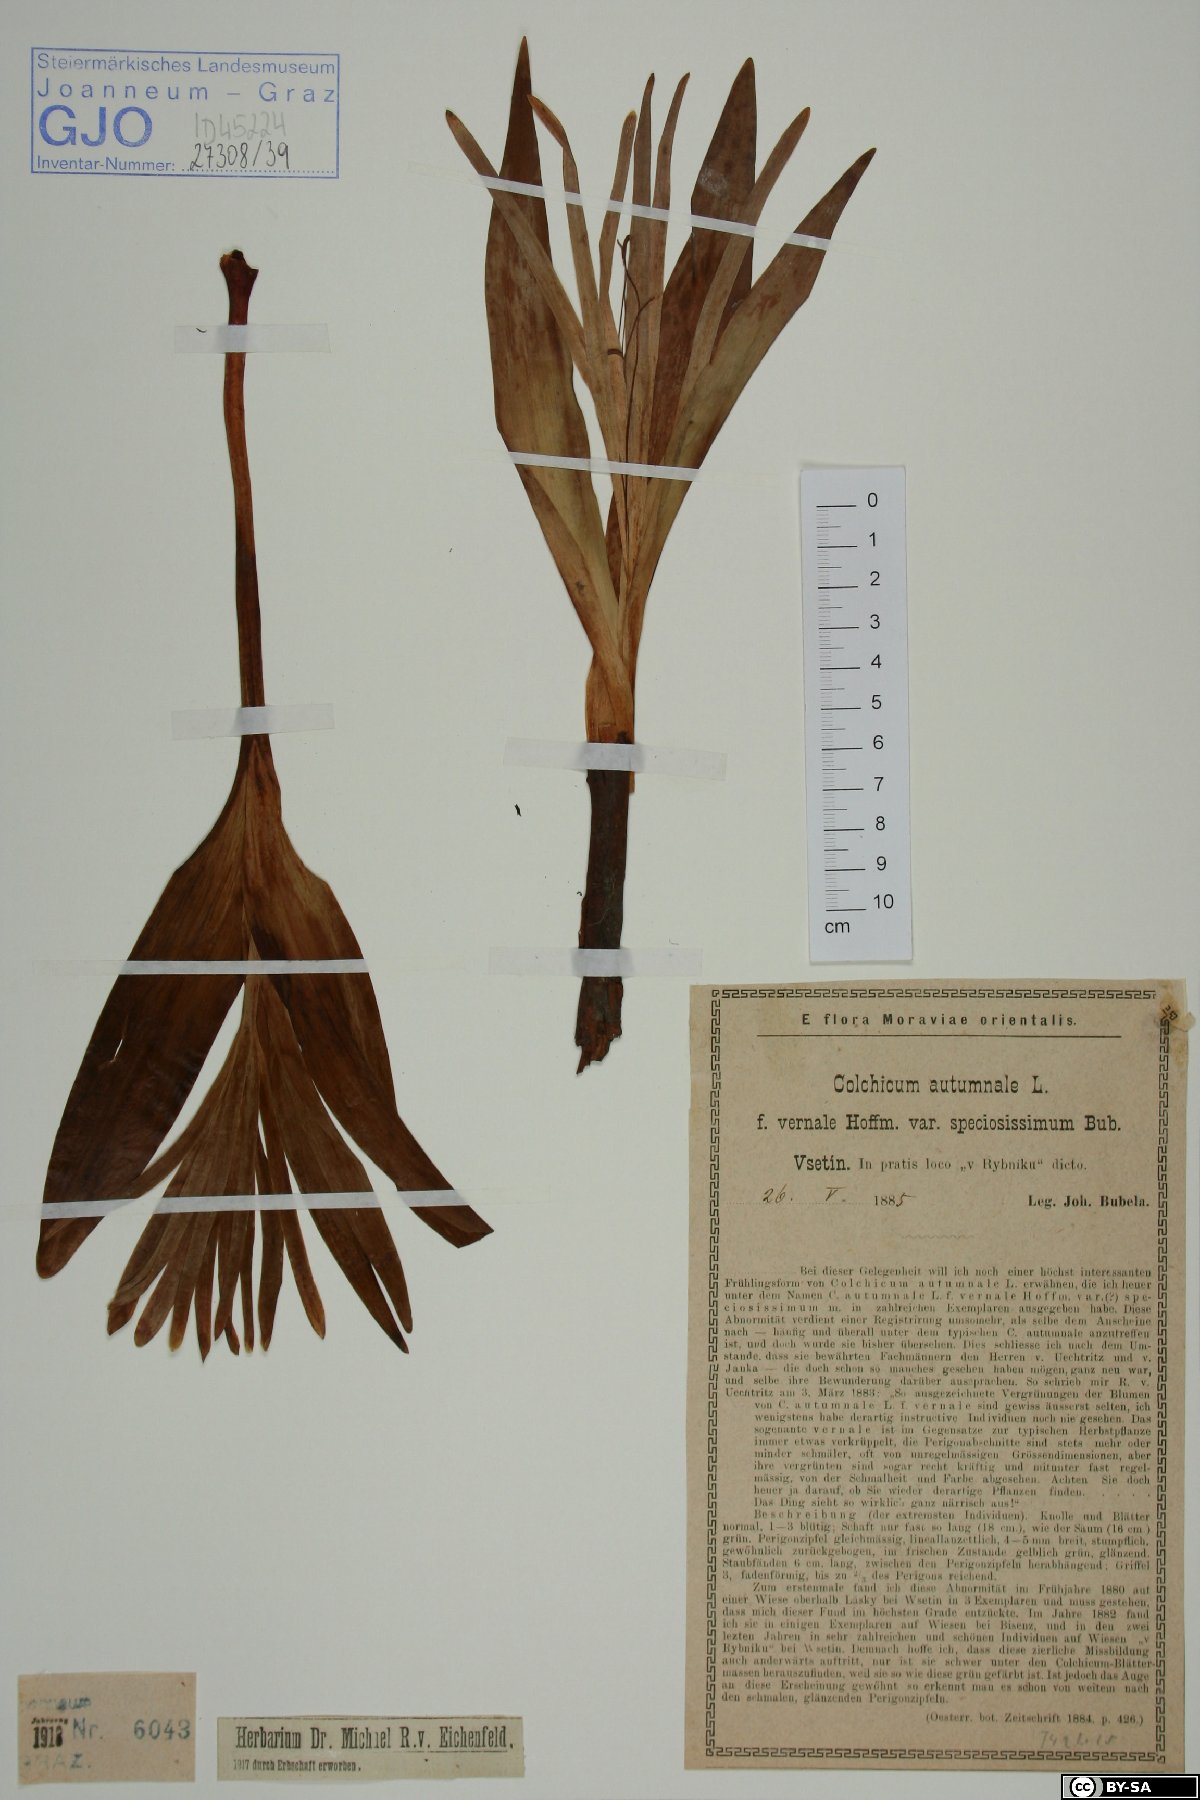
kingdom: Plantae
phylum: Tracheophyta
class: Liliopsida
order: Liliales
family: Colchicaceae
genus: Colchicum
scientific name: Colchicum autumnale
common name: Autumn crocus
